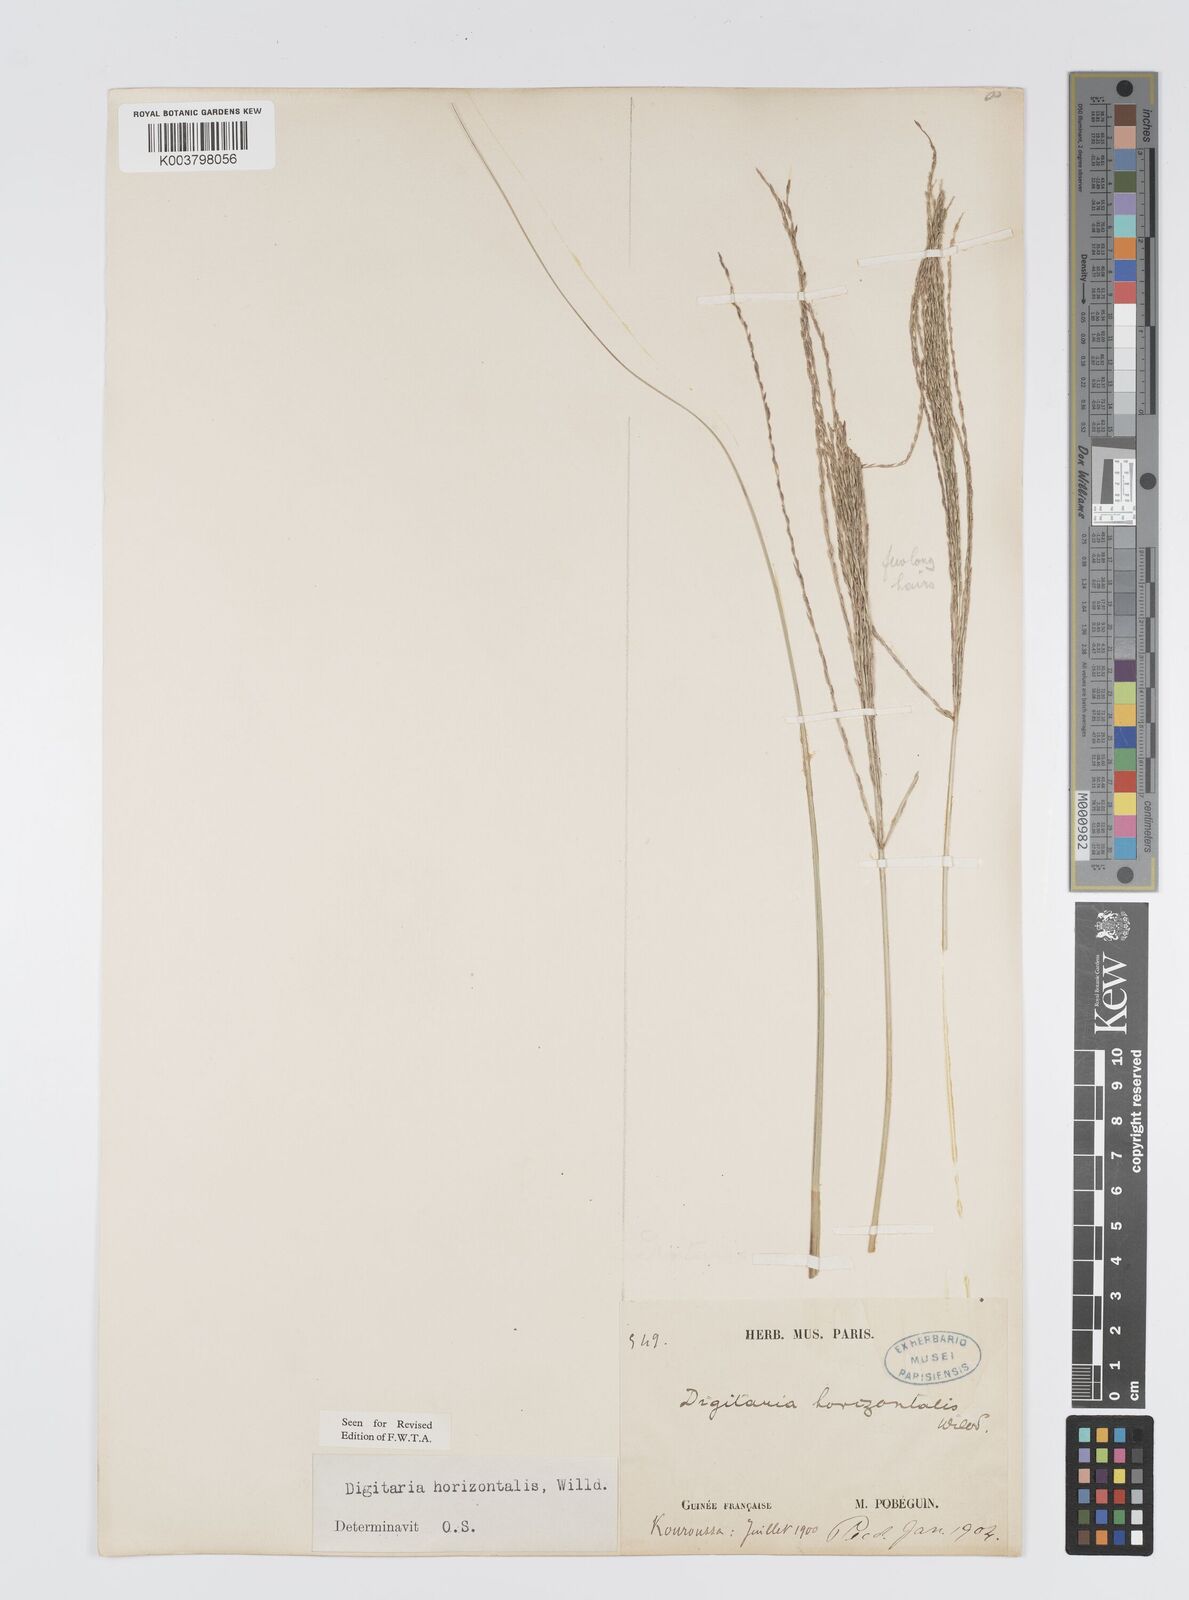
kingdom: Plantae
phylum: Tracheophyta
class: Liliopsida
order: Poales
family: Poaceae
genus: Digitaria
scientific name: Digitaria horizontalis
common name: Jamaican crabgrass
